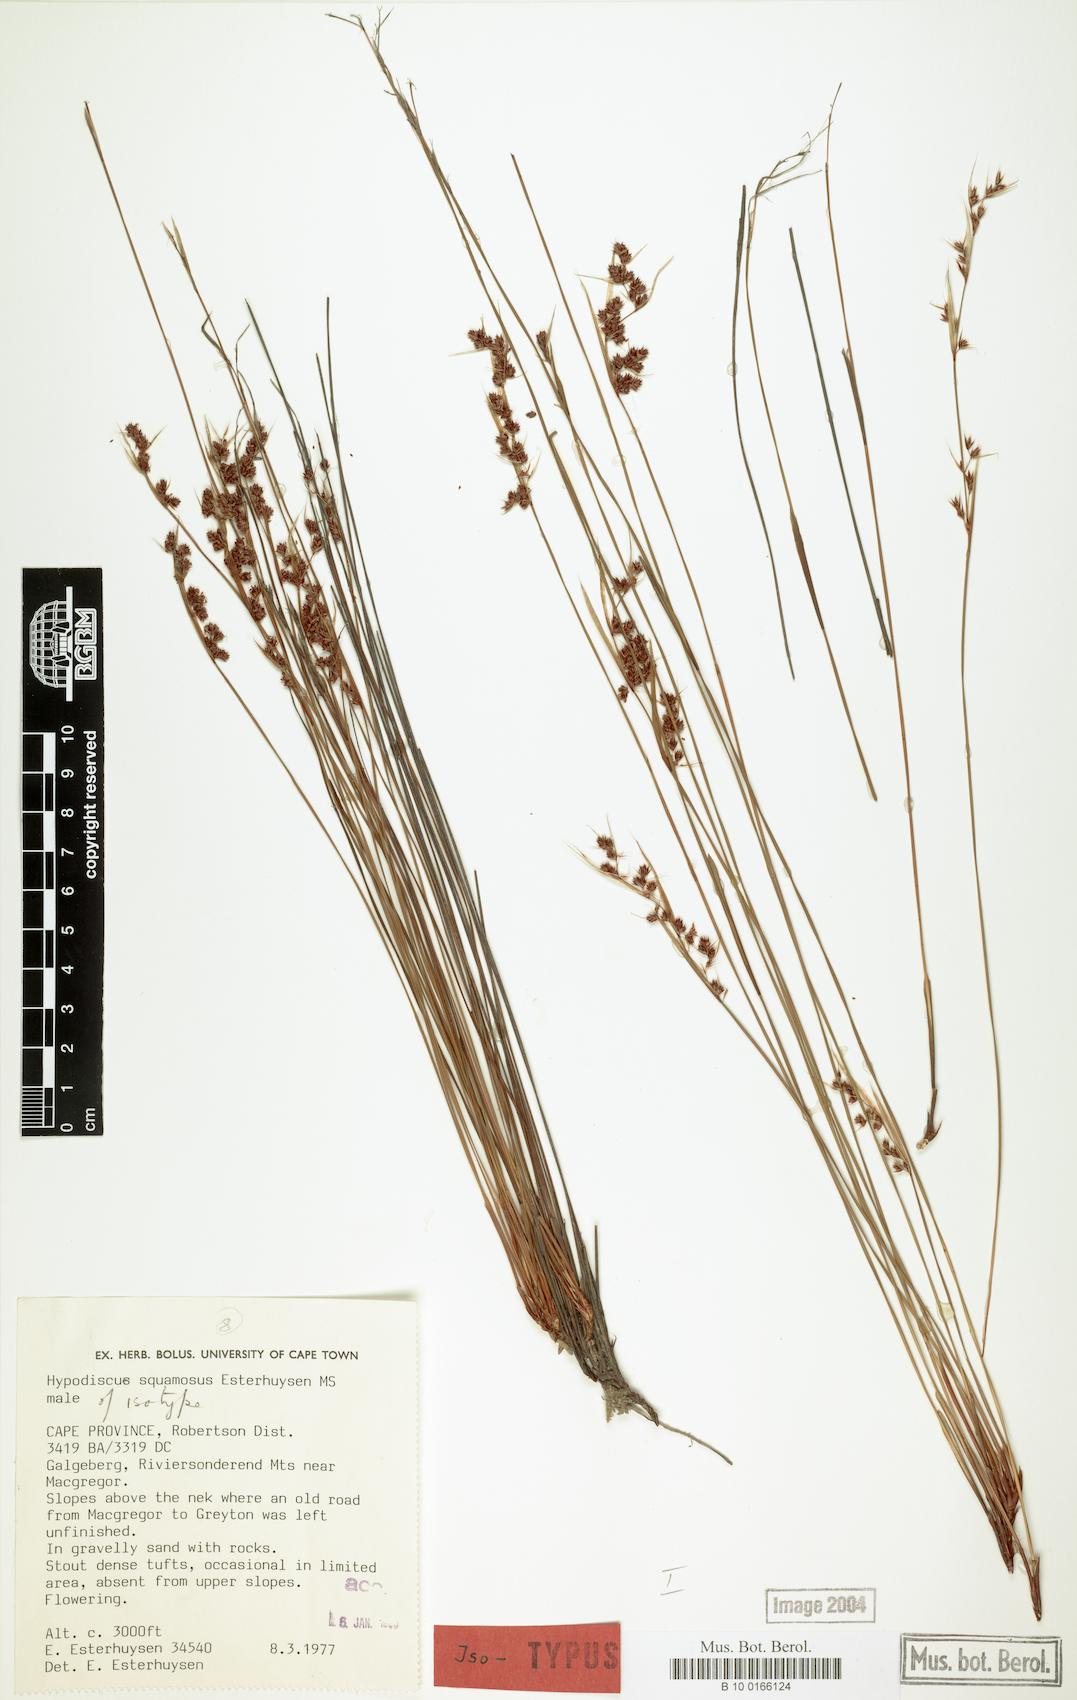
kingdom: Plantae
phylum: Tracheophyta
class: Liliopsida
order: Poales
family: Restionaceae
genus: Hypodiscus
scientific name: Hypodiscus squamosus
